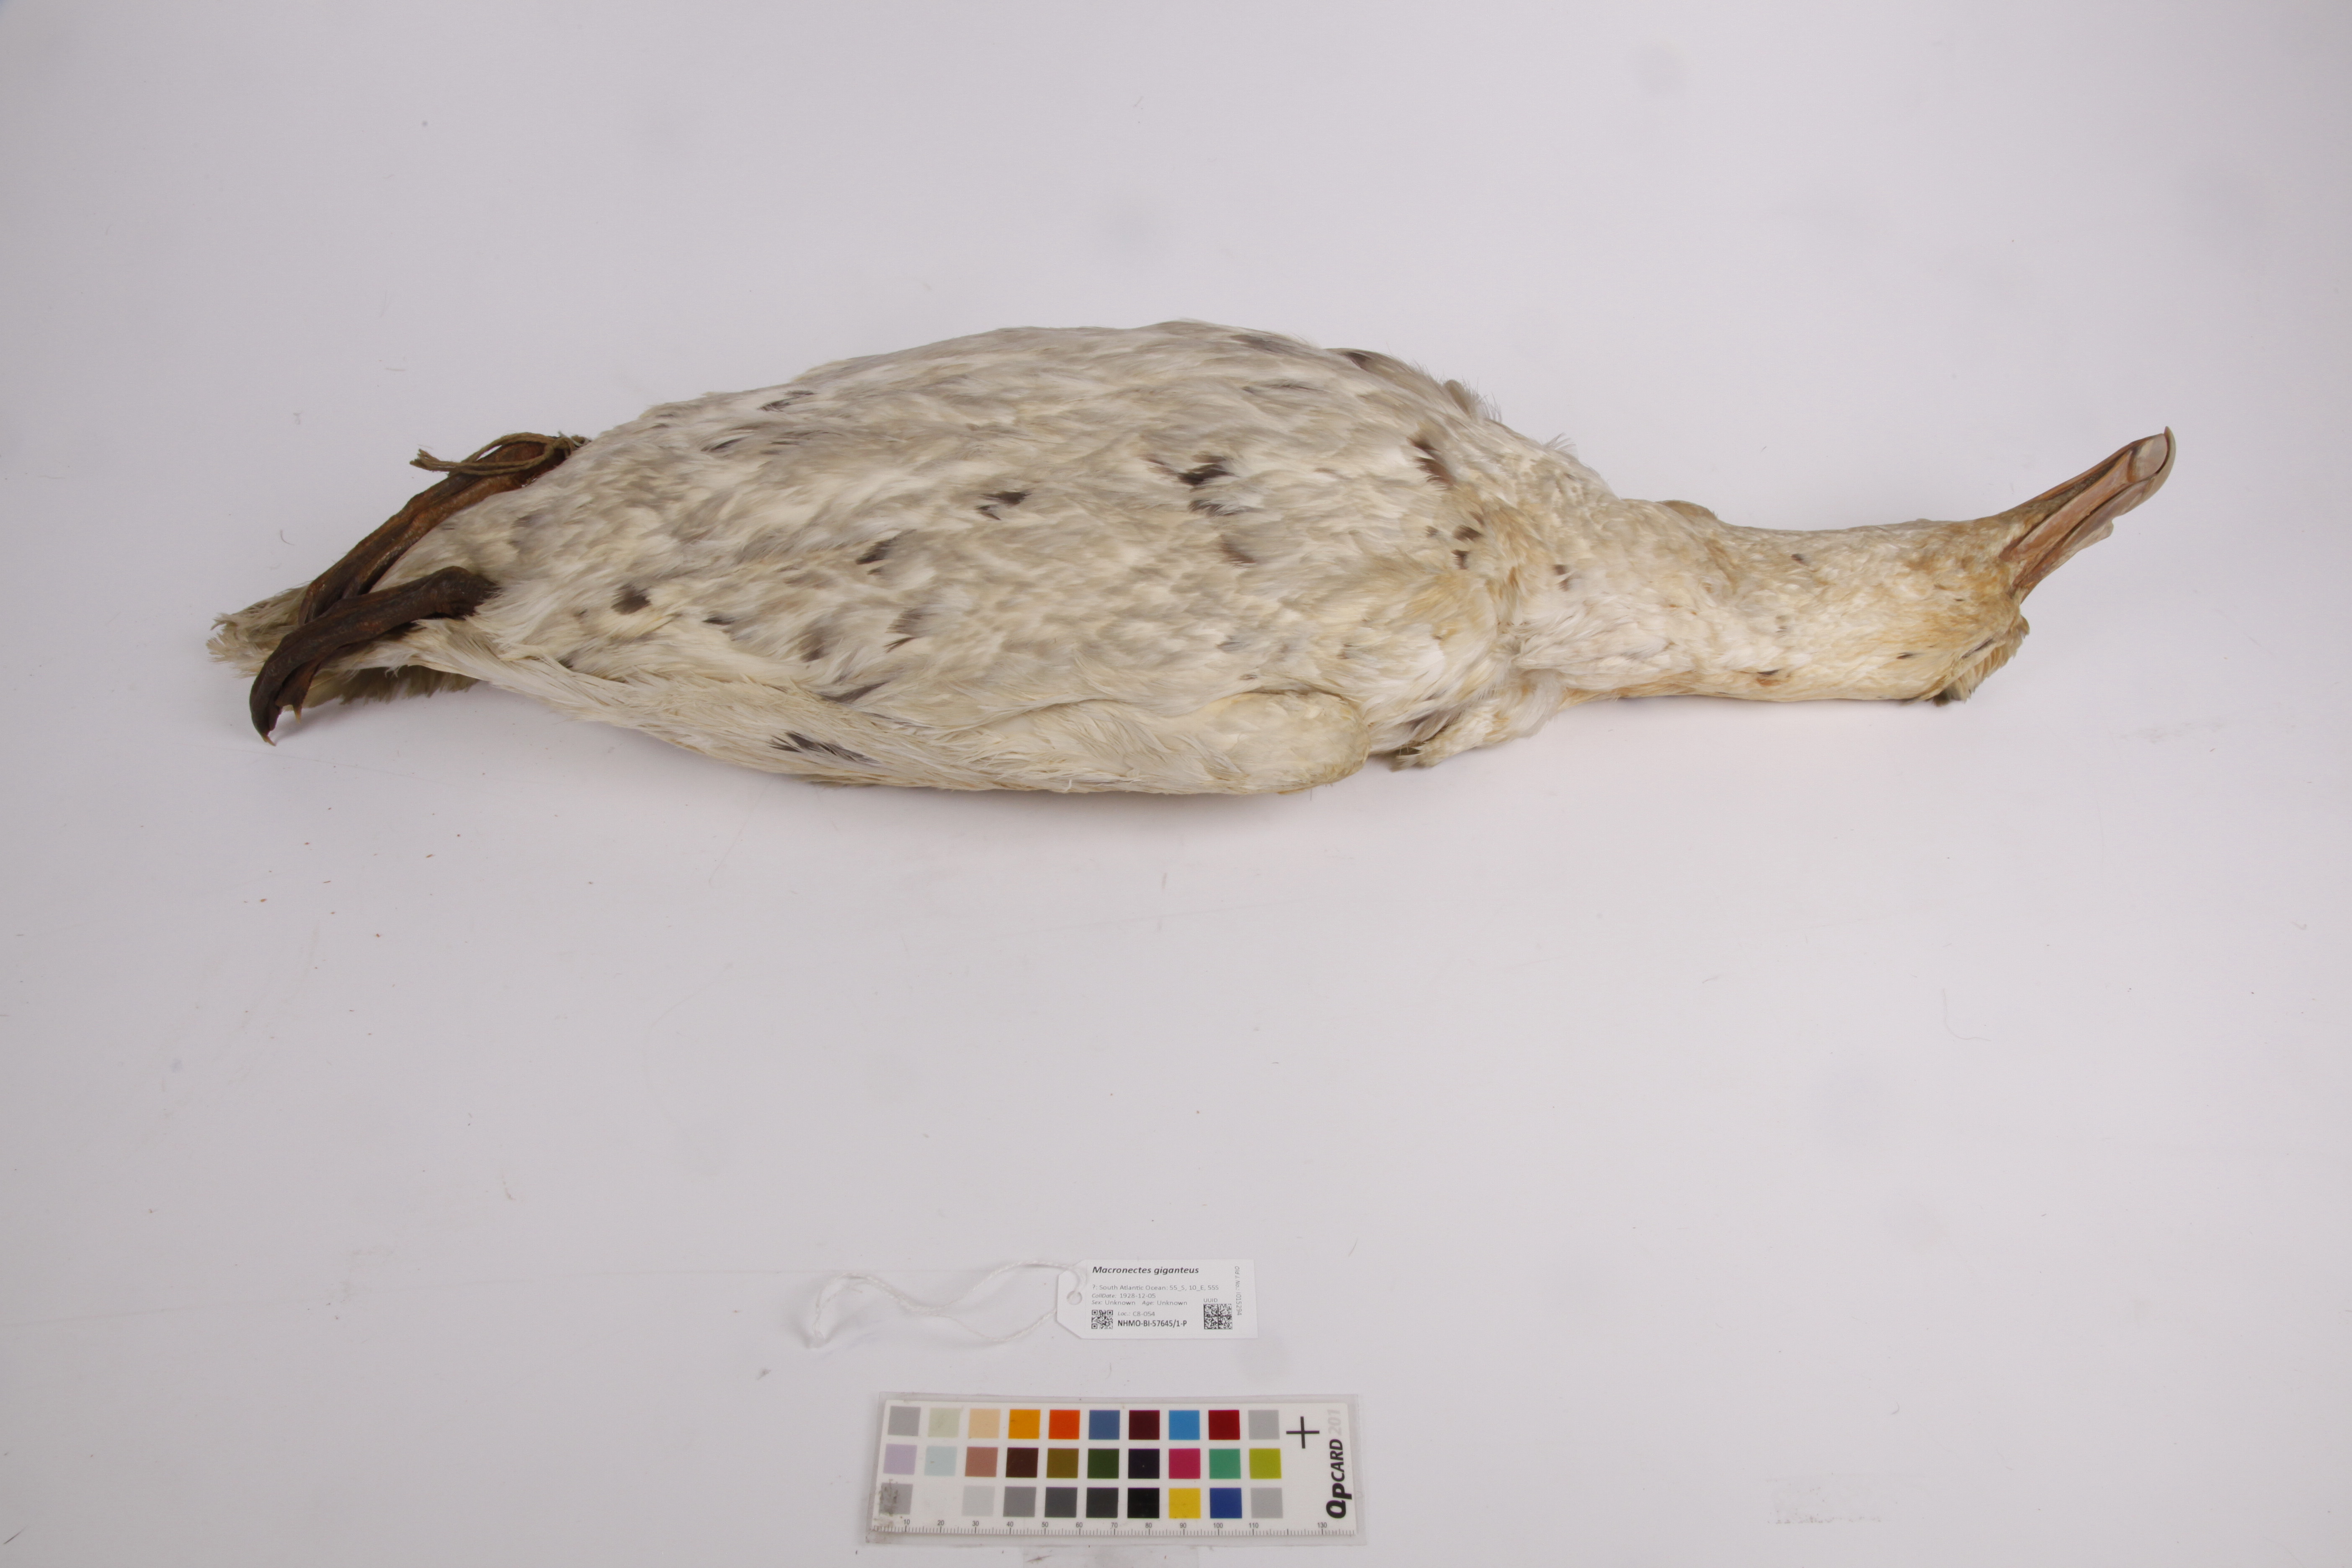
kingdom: Animalia
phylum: Chordata
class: Aves
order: Procellariiformes
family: Procellariidae
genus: Macronectes
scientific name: Macronectes giganteus
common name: Southern giant petrel
